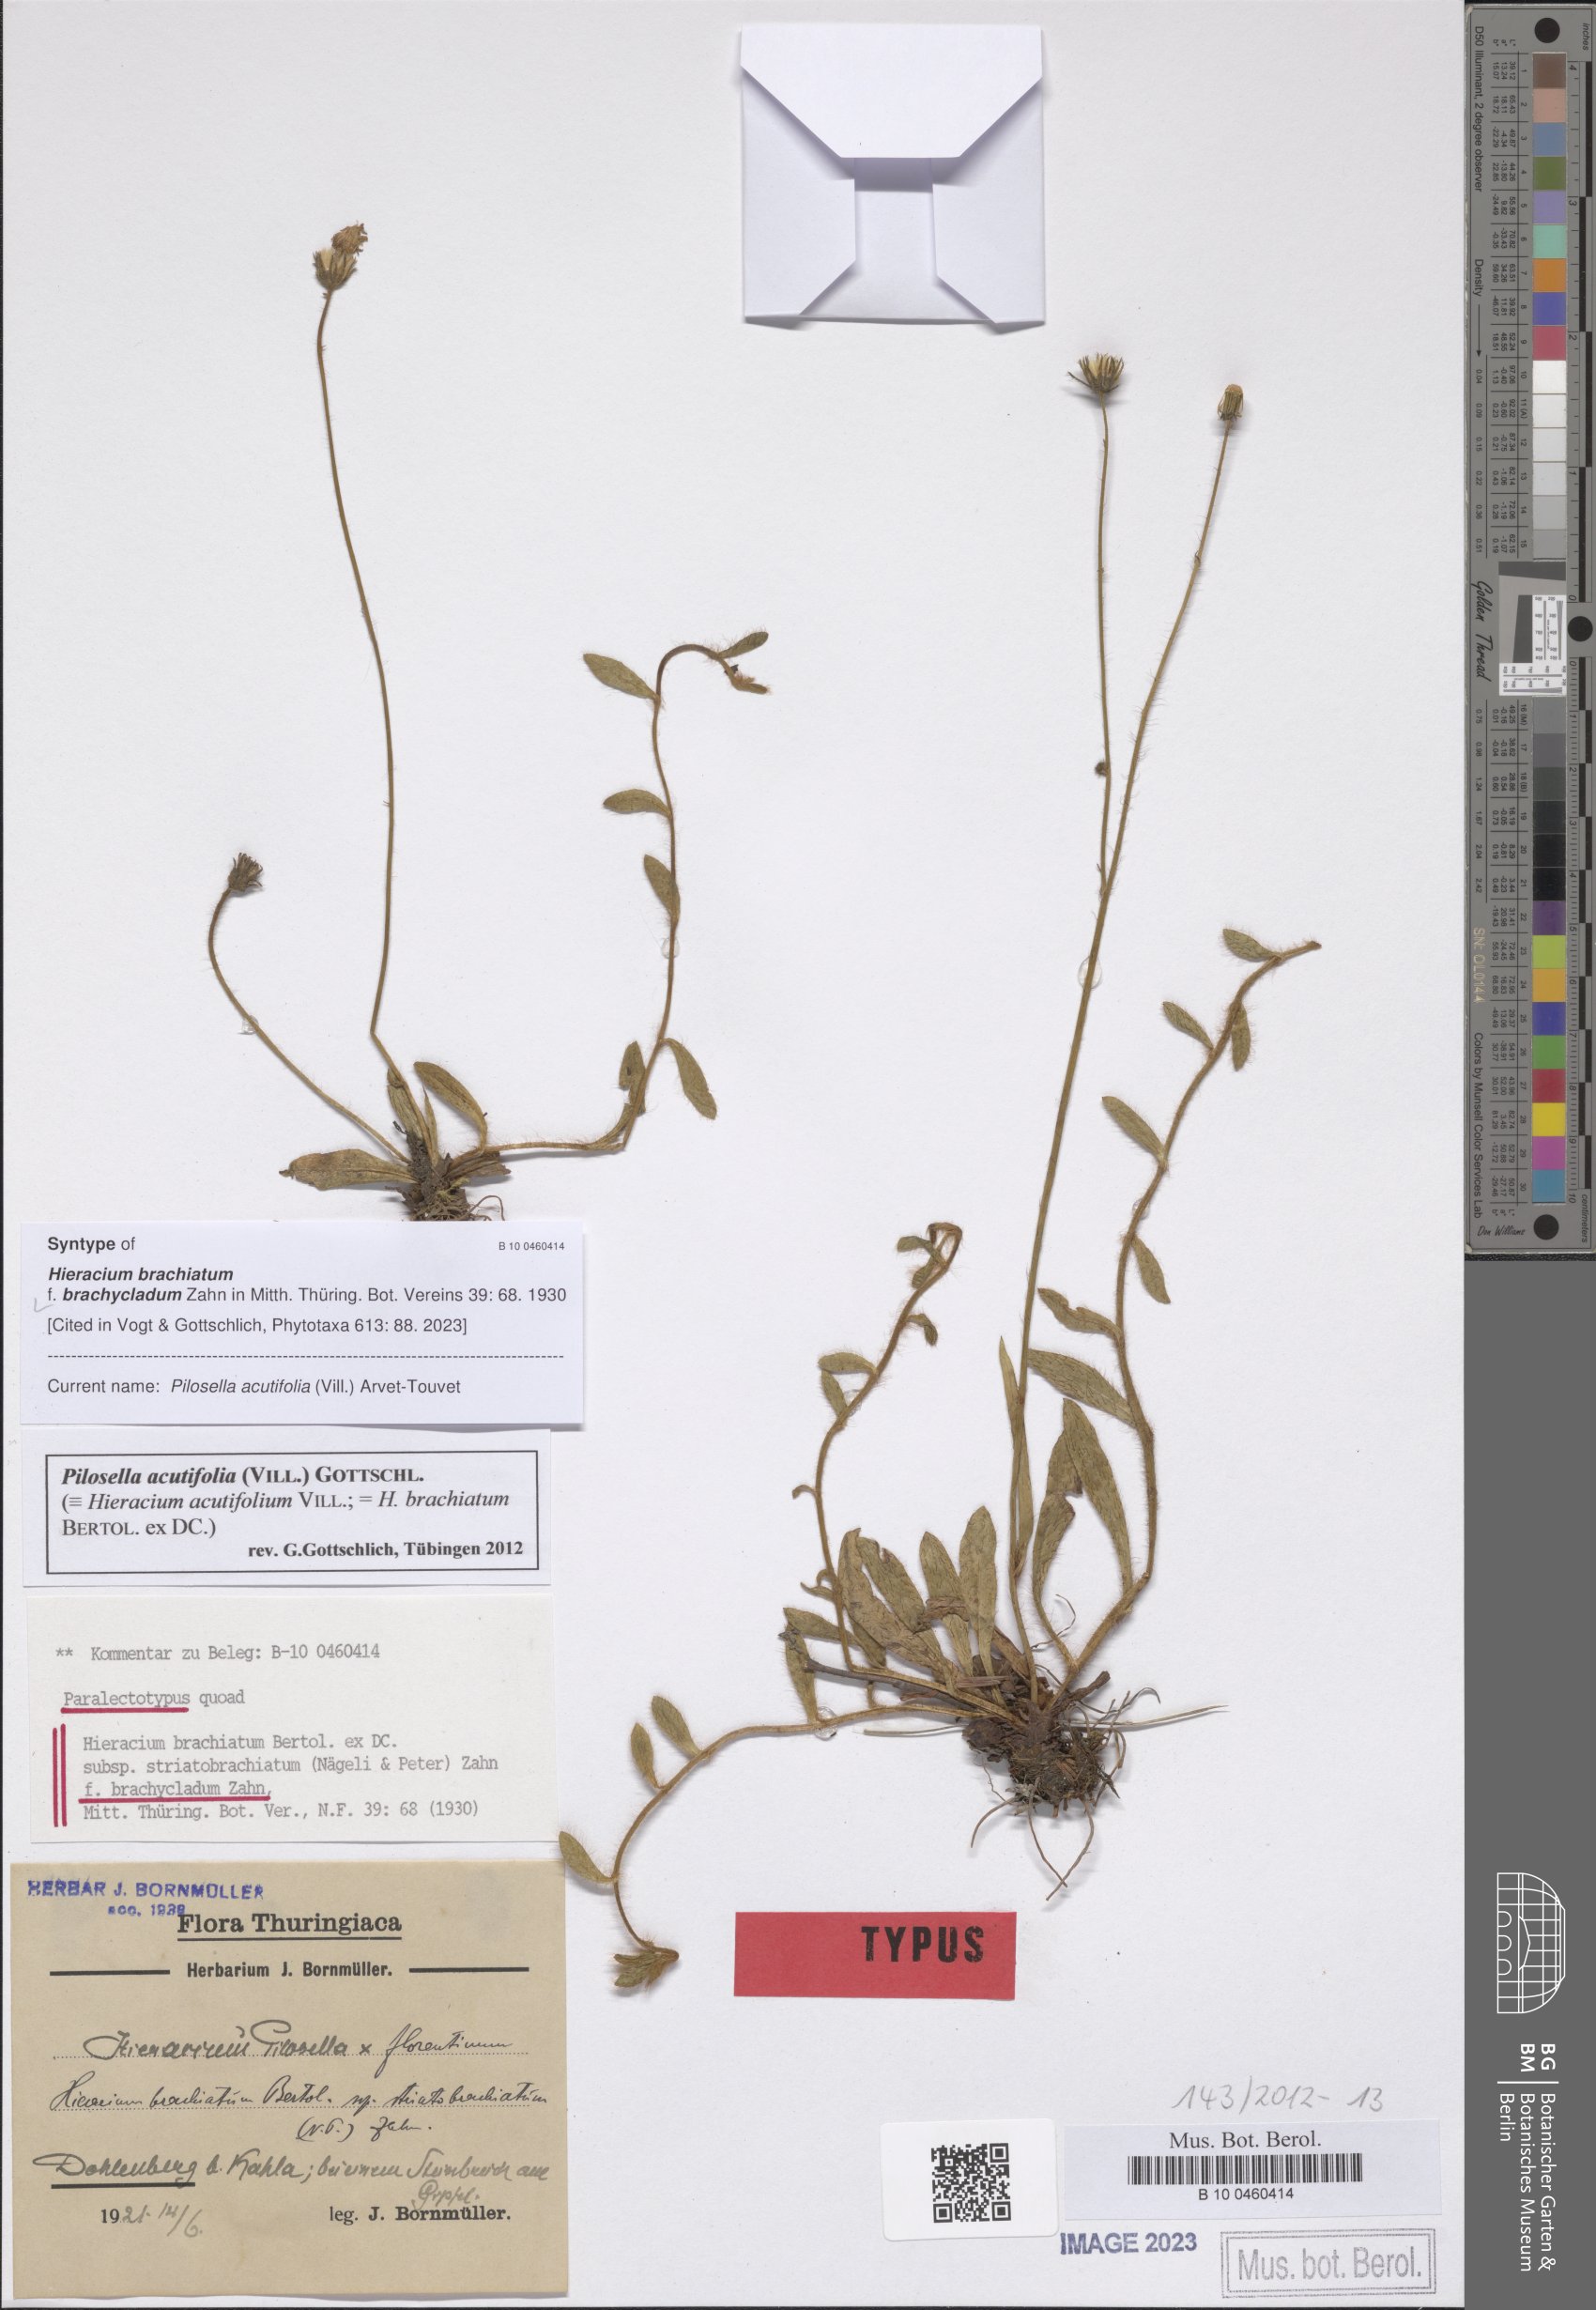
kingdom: Plantae
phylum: Tracheophyta
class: Magnoliopsida
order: Asterales
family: Asteraceae
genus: Pilosella
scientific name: Pilosella acutifolia
